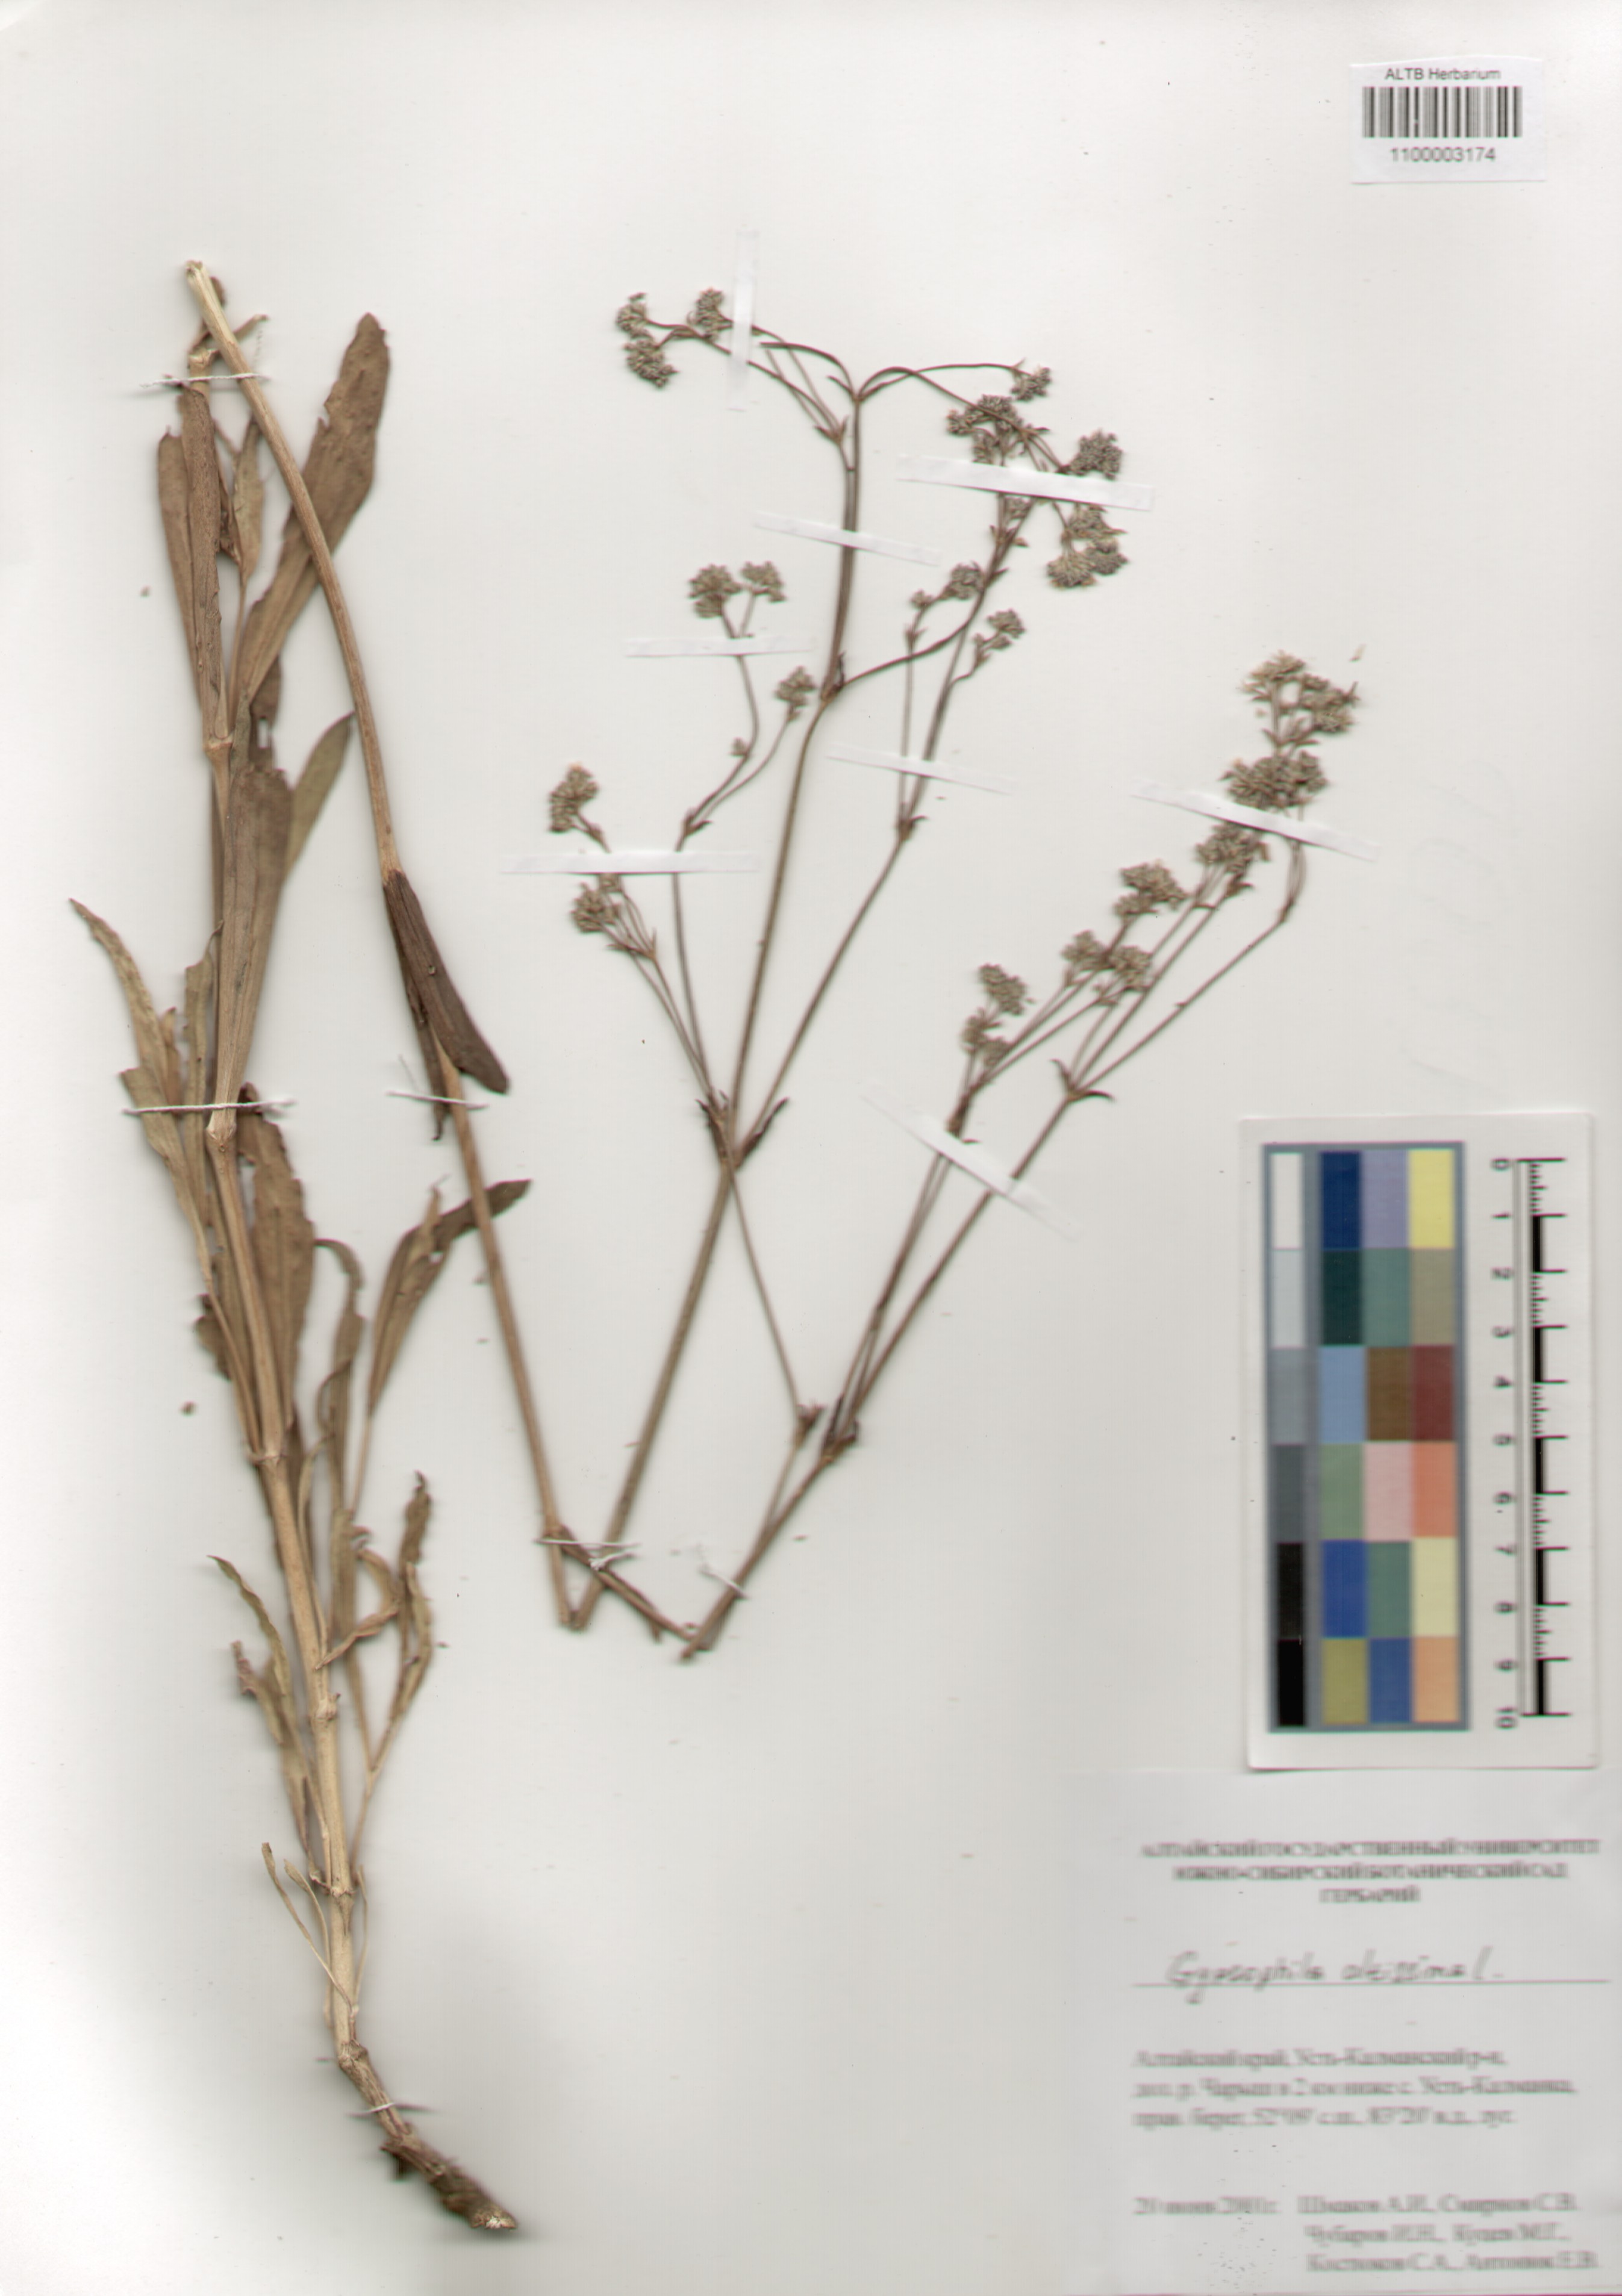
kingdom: Plantae
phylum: Tracheophyta
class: Magnoliopsida
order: Caryophyllales
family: Caryophyllaceae
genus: Gypsophila
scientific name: Gypsophila altissima
